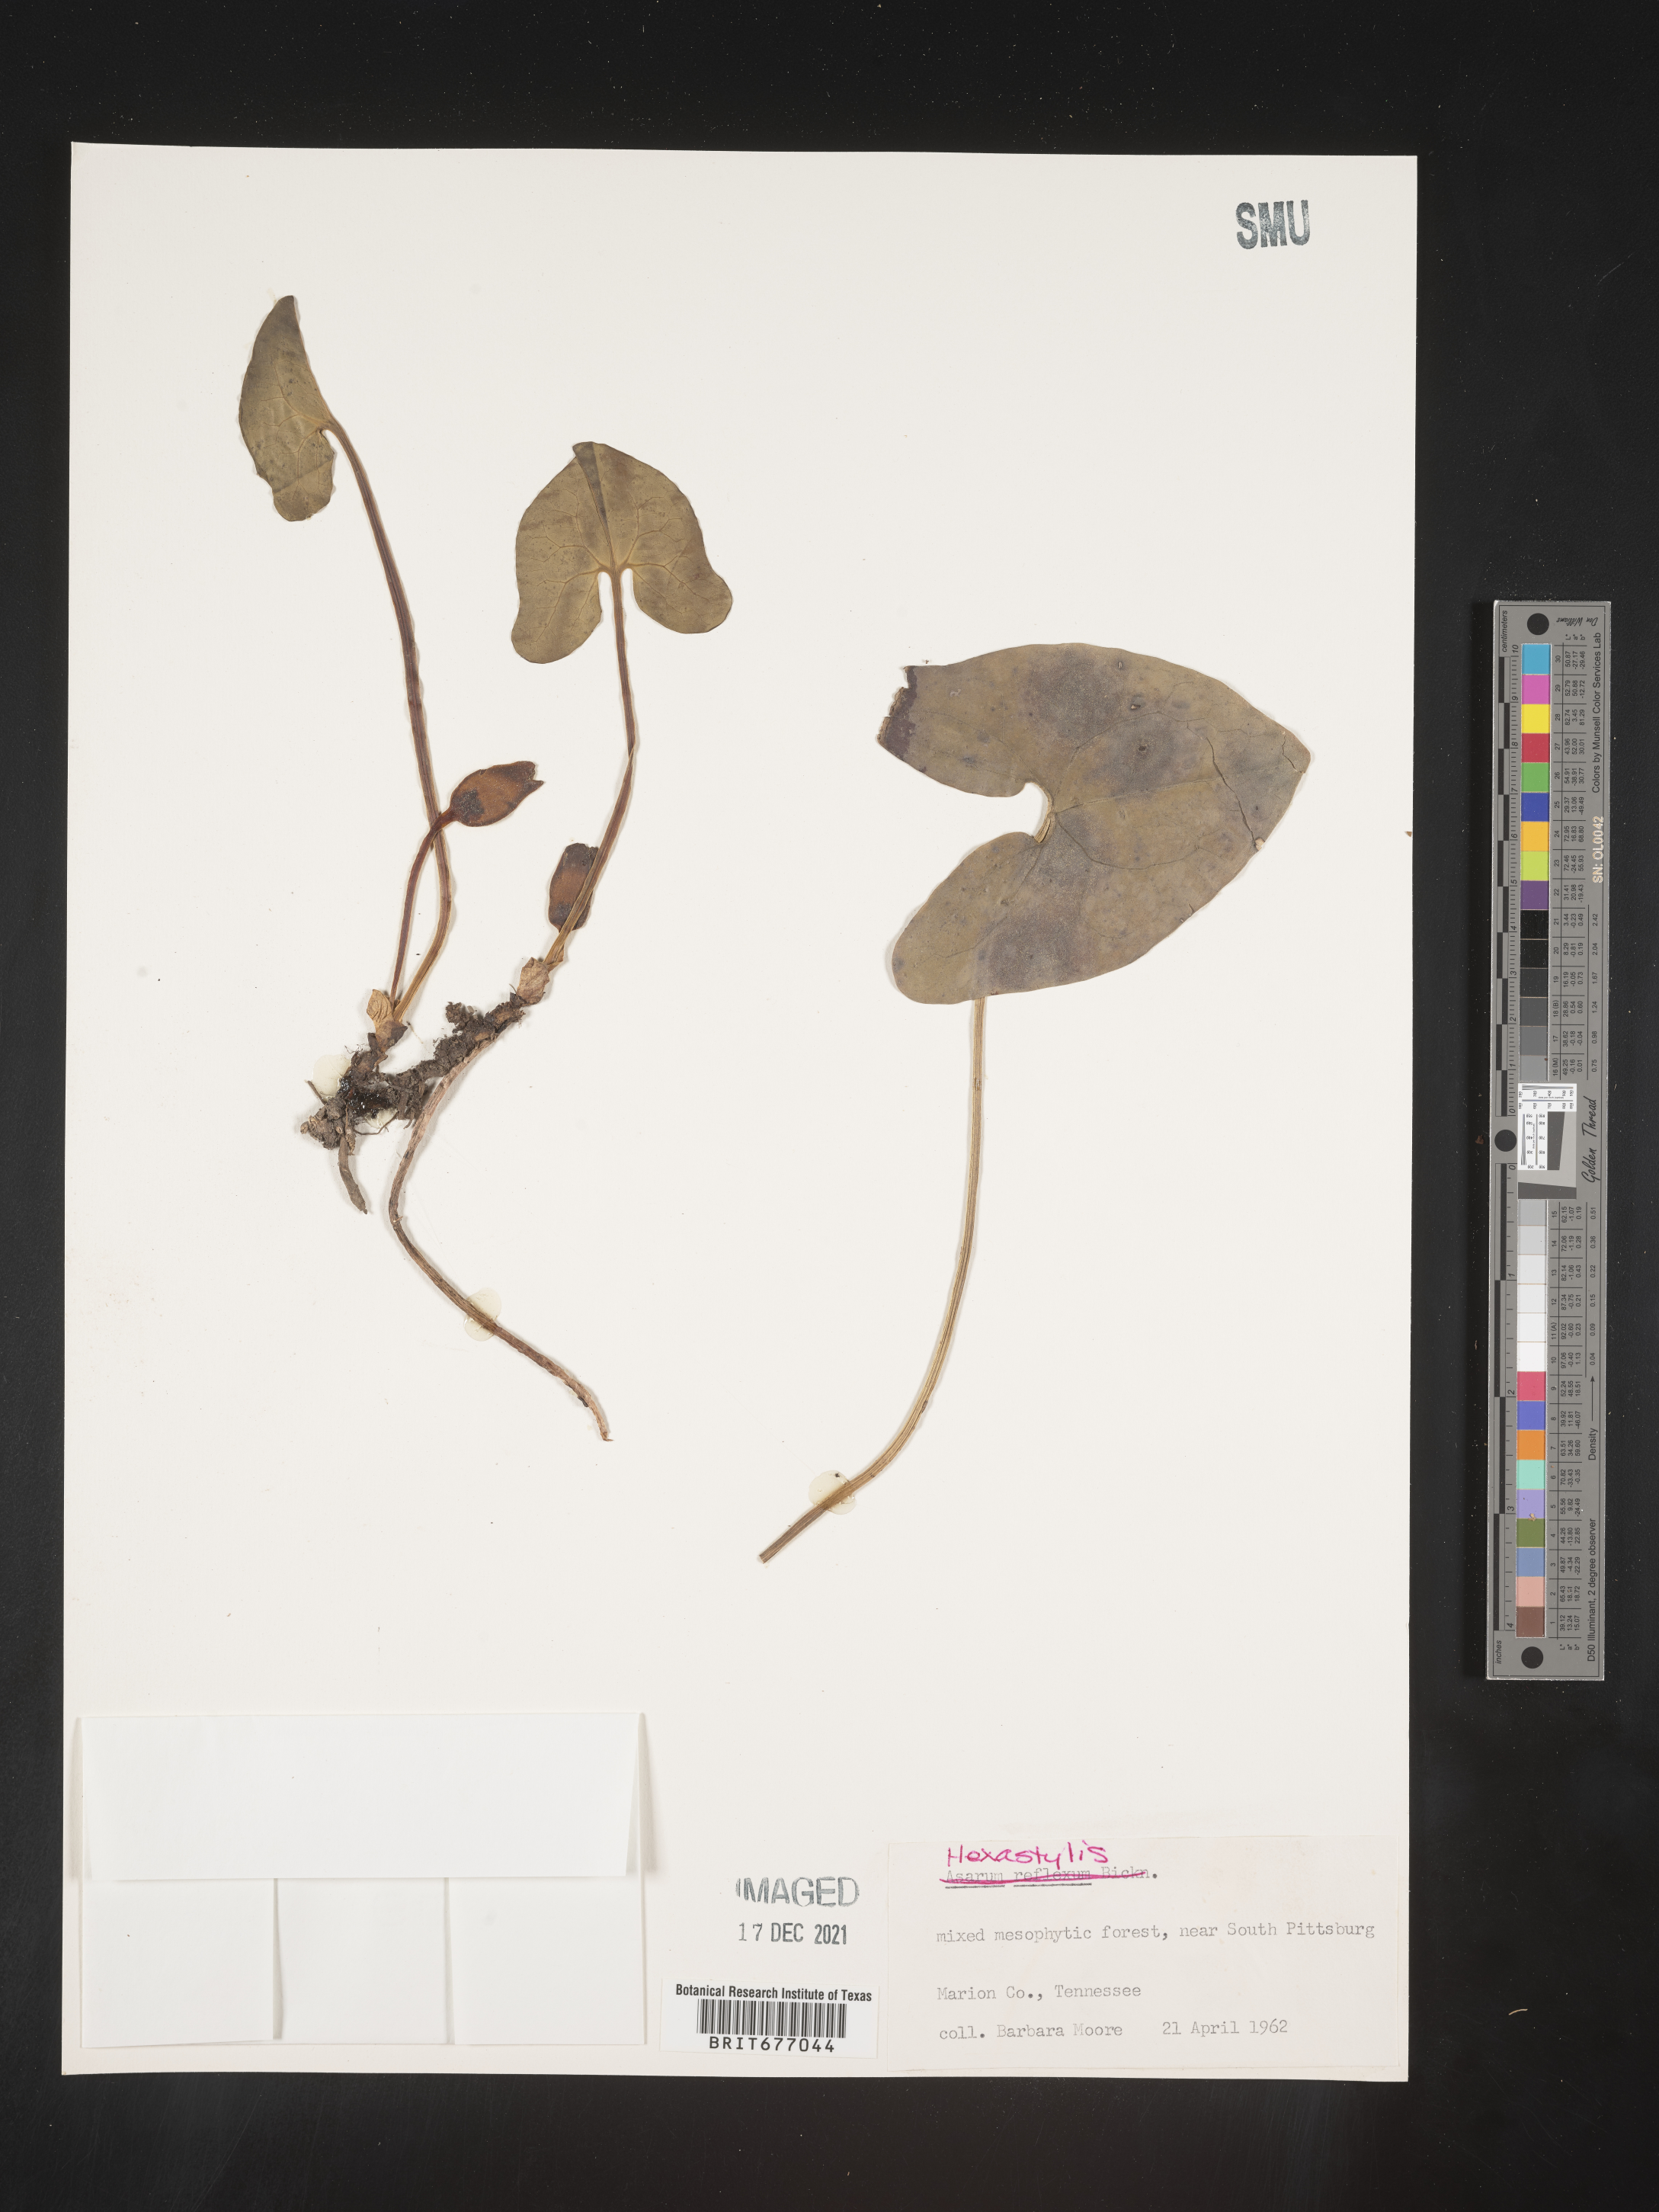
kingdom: Plantae
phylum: Tracheophyta
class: Magnoliopsida
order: Piperales
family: Aristolochiaceae
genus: Asarum
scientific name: Asarum
